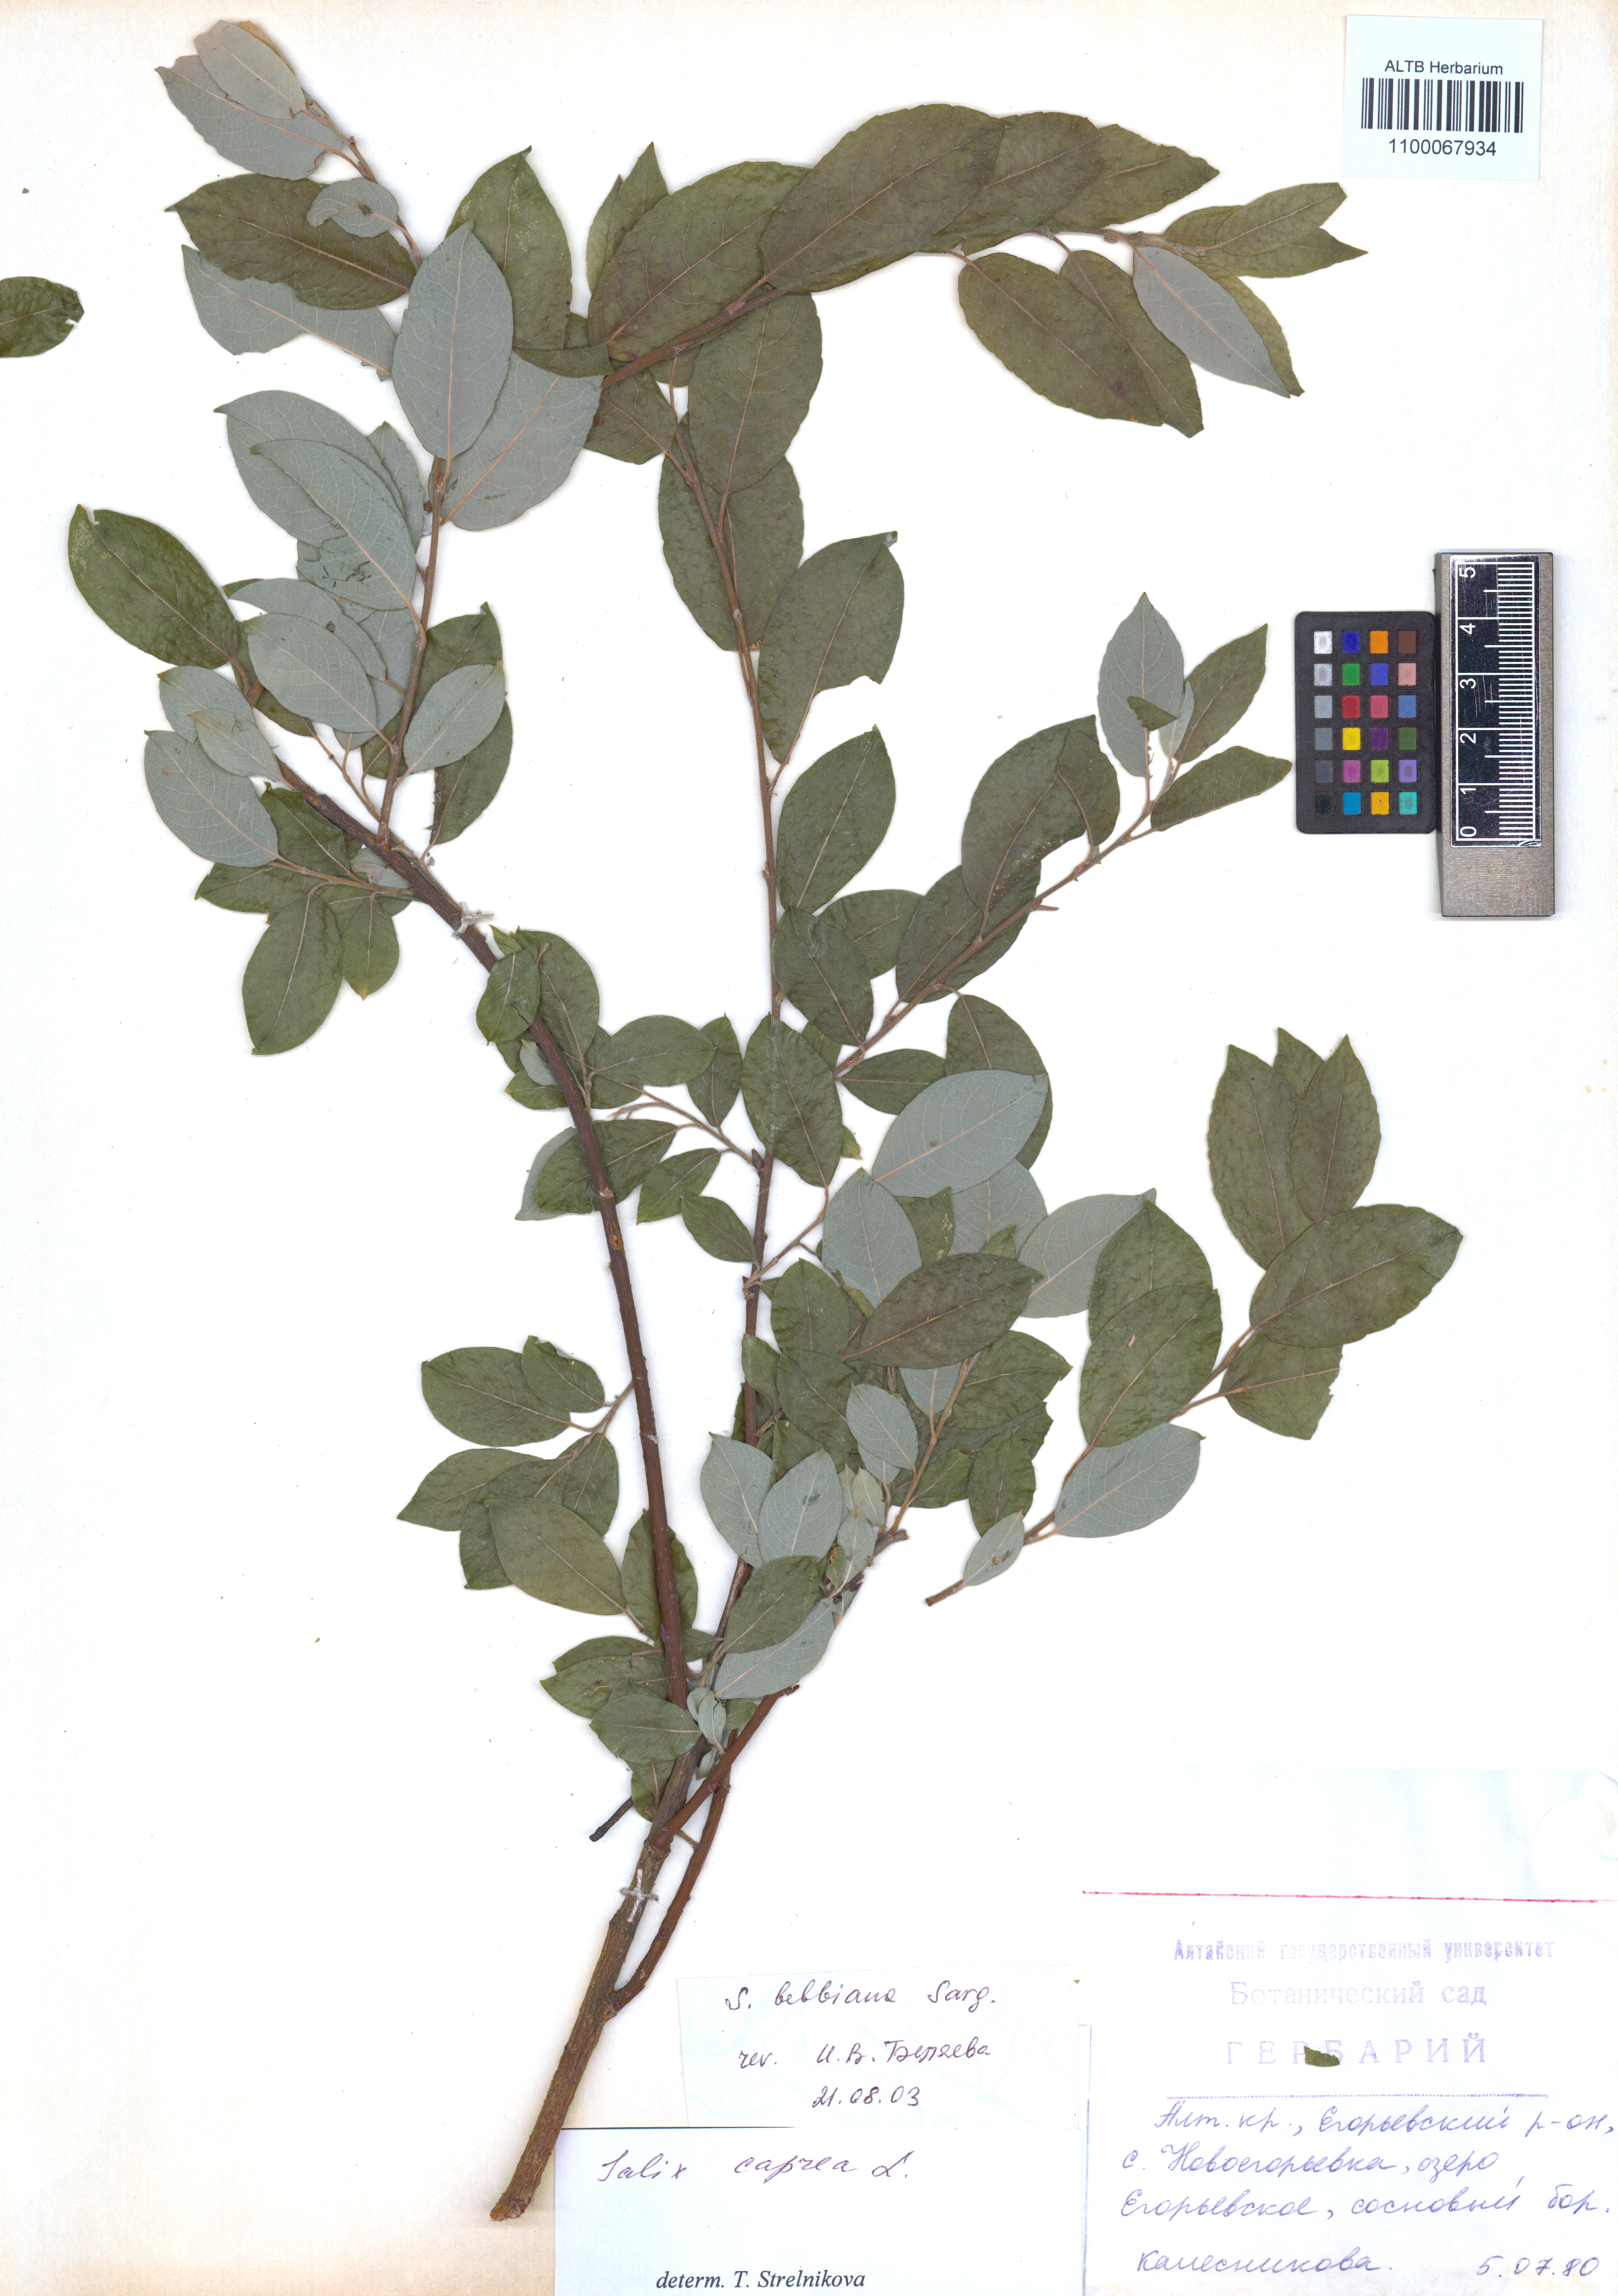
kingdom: Plantae
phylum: Tracheophyta
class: Magnoliopsida
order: Malpighiales
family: Salicaceae
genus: Salix
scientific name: Salix bebbiana
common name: Bebb's willow
